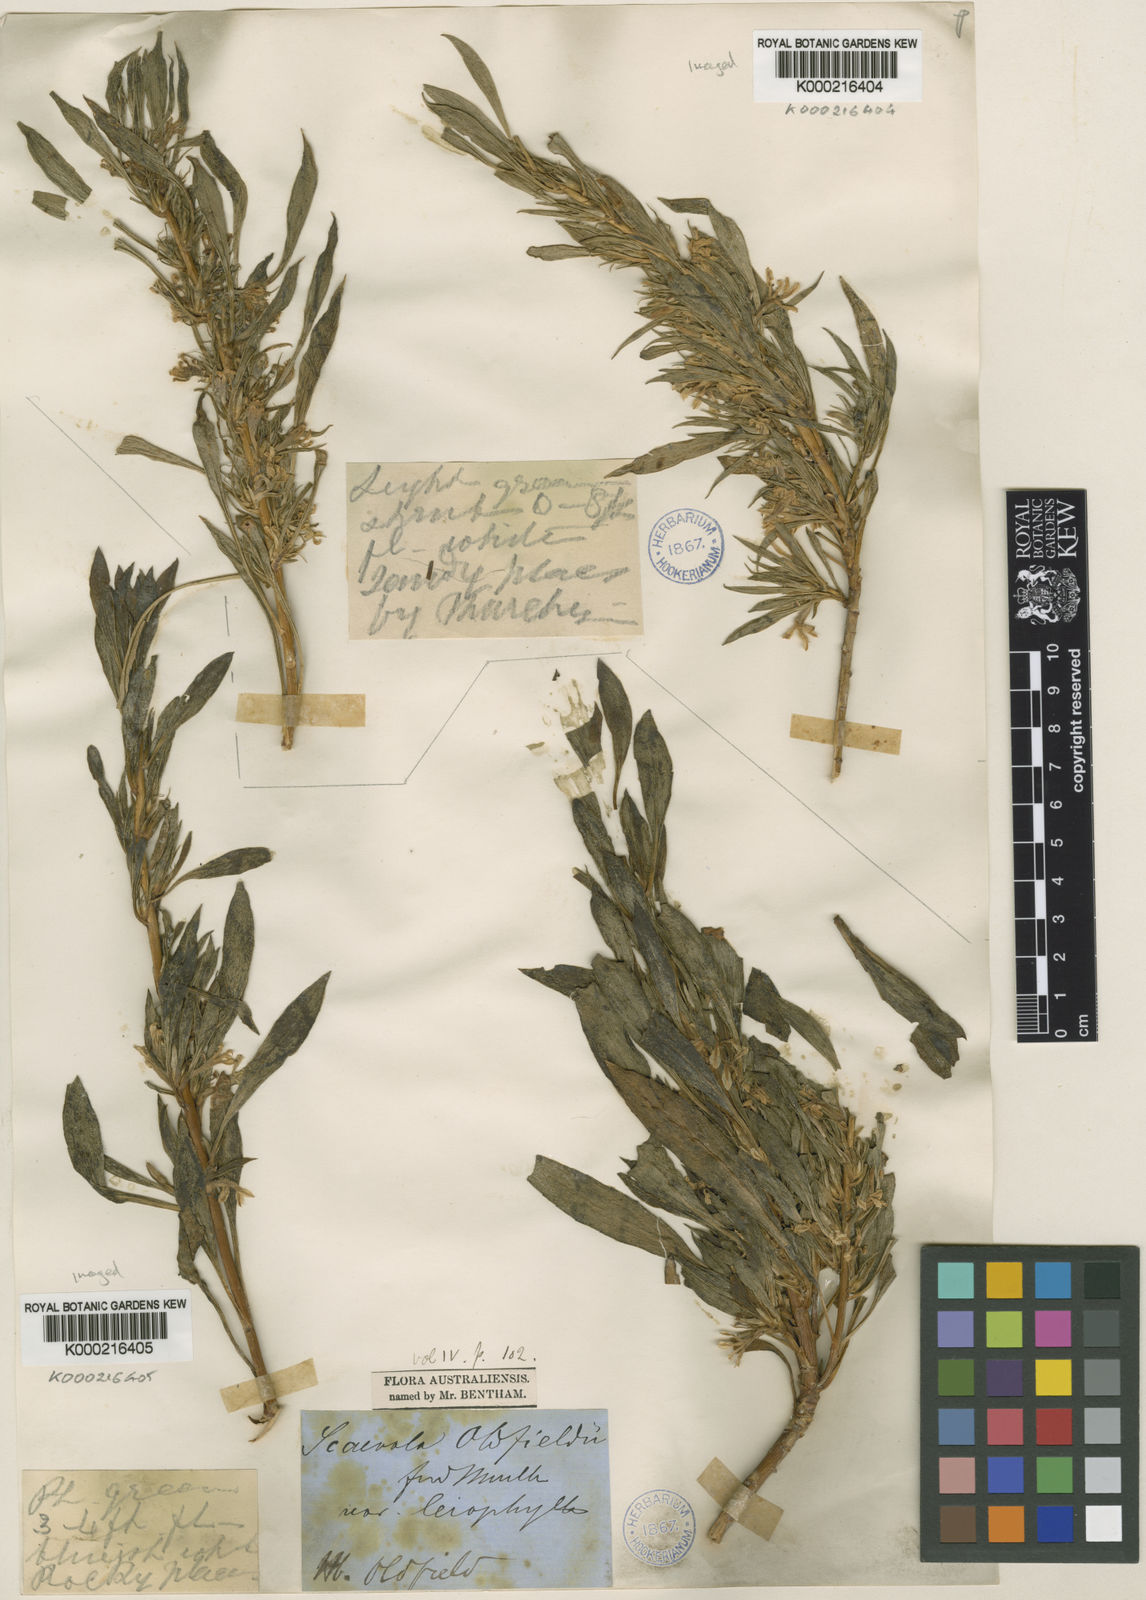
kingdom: Plantae
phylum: Tracheophyta
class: Magnoliopsida
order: Asterales
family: Goodeniaceae
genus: Scaevola
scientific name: Scaevola oldfieldii
